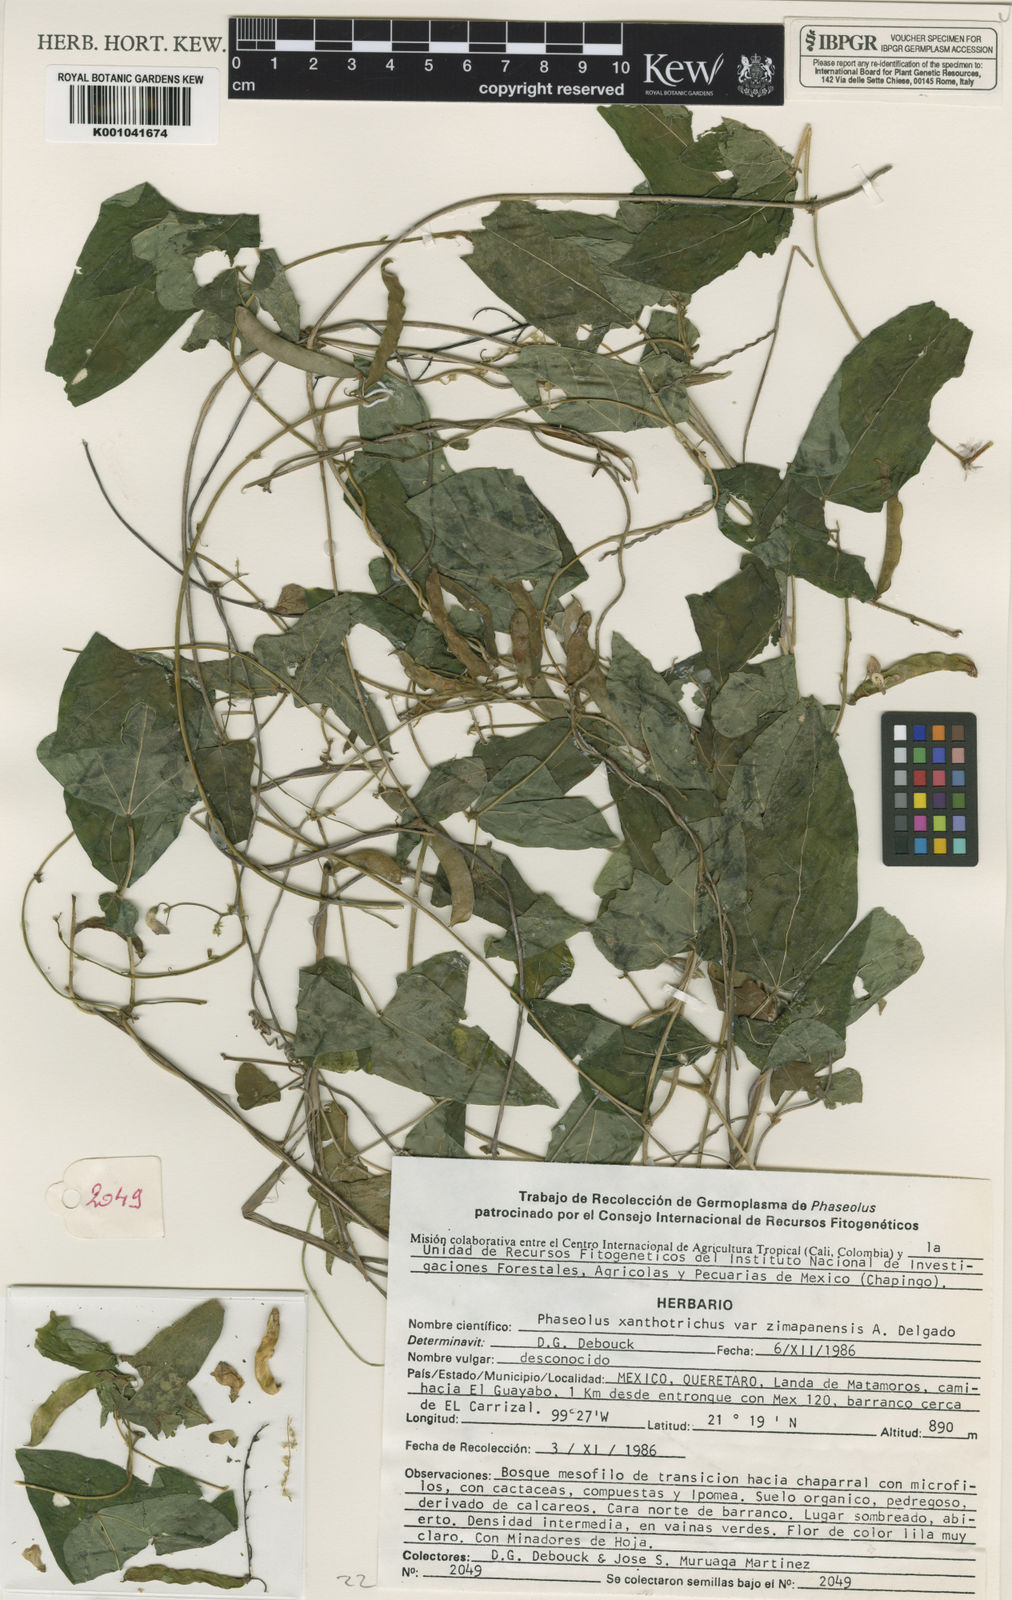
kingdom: Plantae
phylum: Tracheophyta
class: Magnoliopsida
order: Fabales
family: Fabaceae
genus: Phaseolus
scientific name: Phaseolus xanthotrichus
